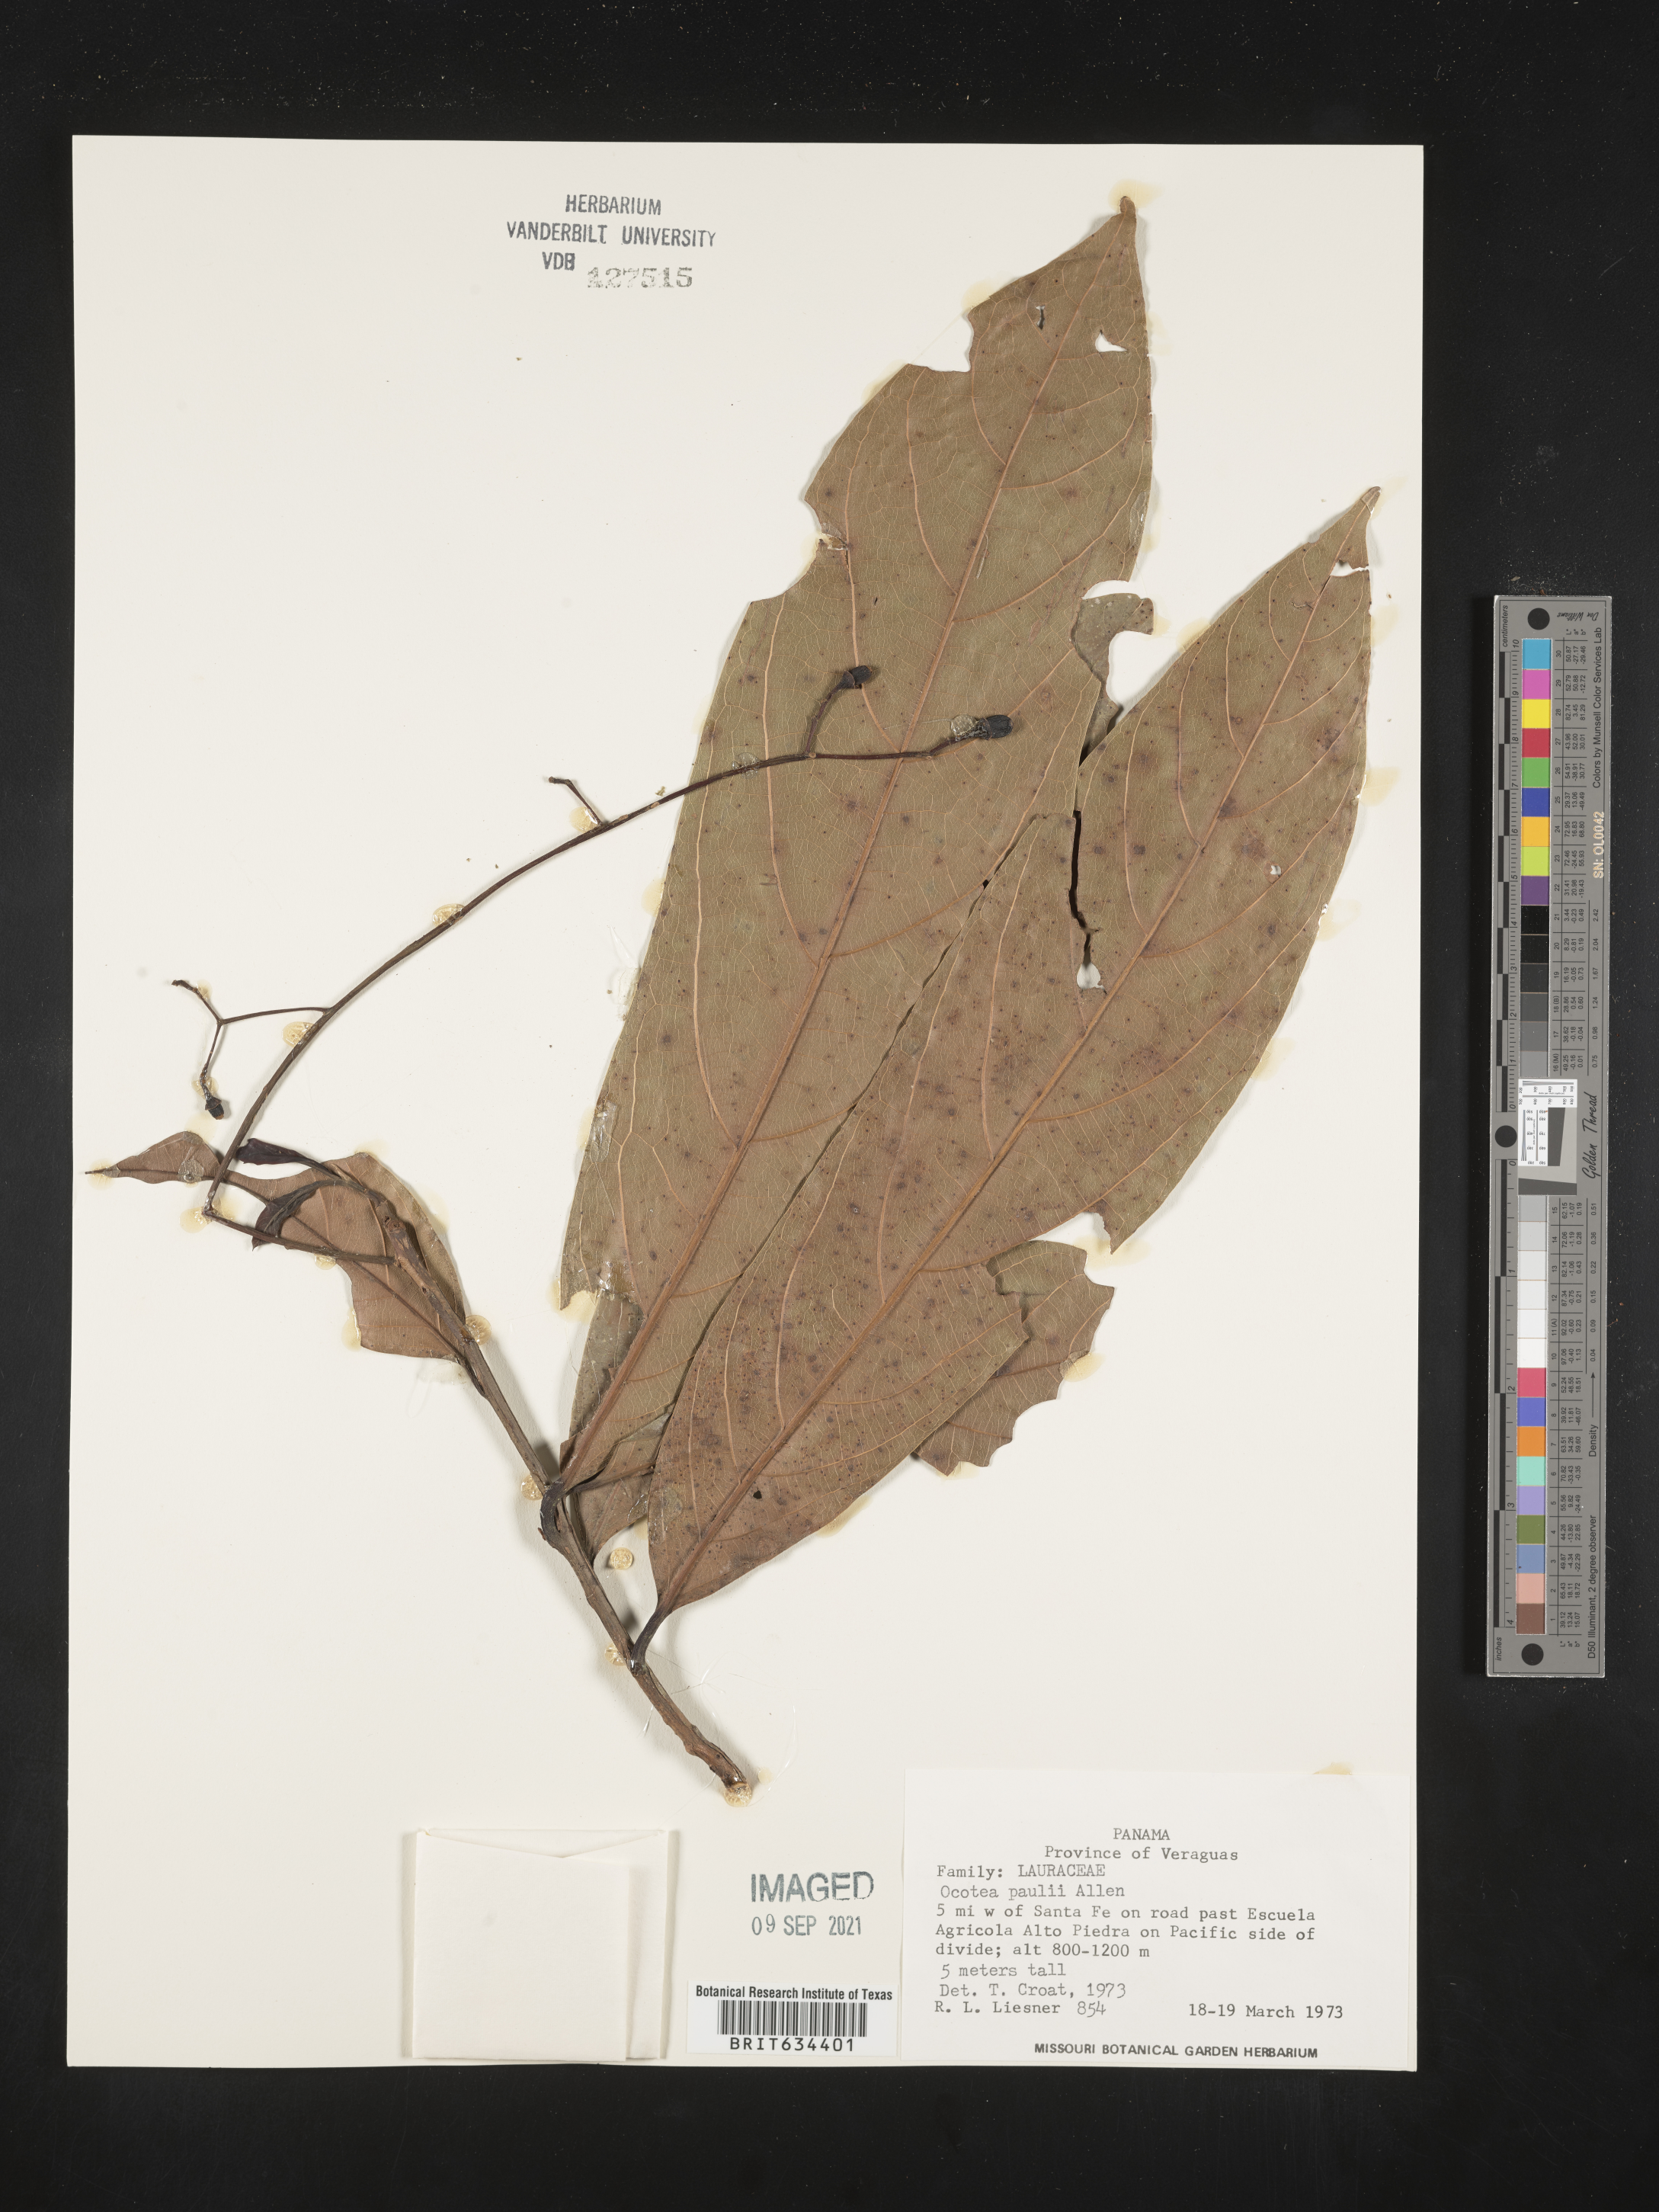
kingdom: Plantae
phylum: Tracheophyta
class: Magnoliopsida
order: Laurales
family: Lauraceae
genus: Ocotea
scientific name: Ocotea
